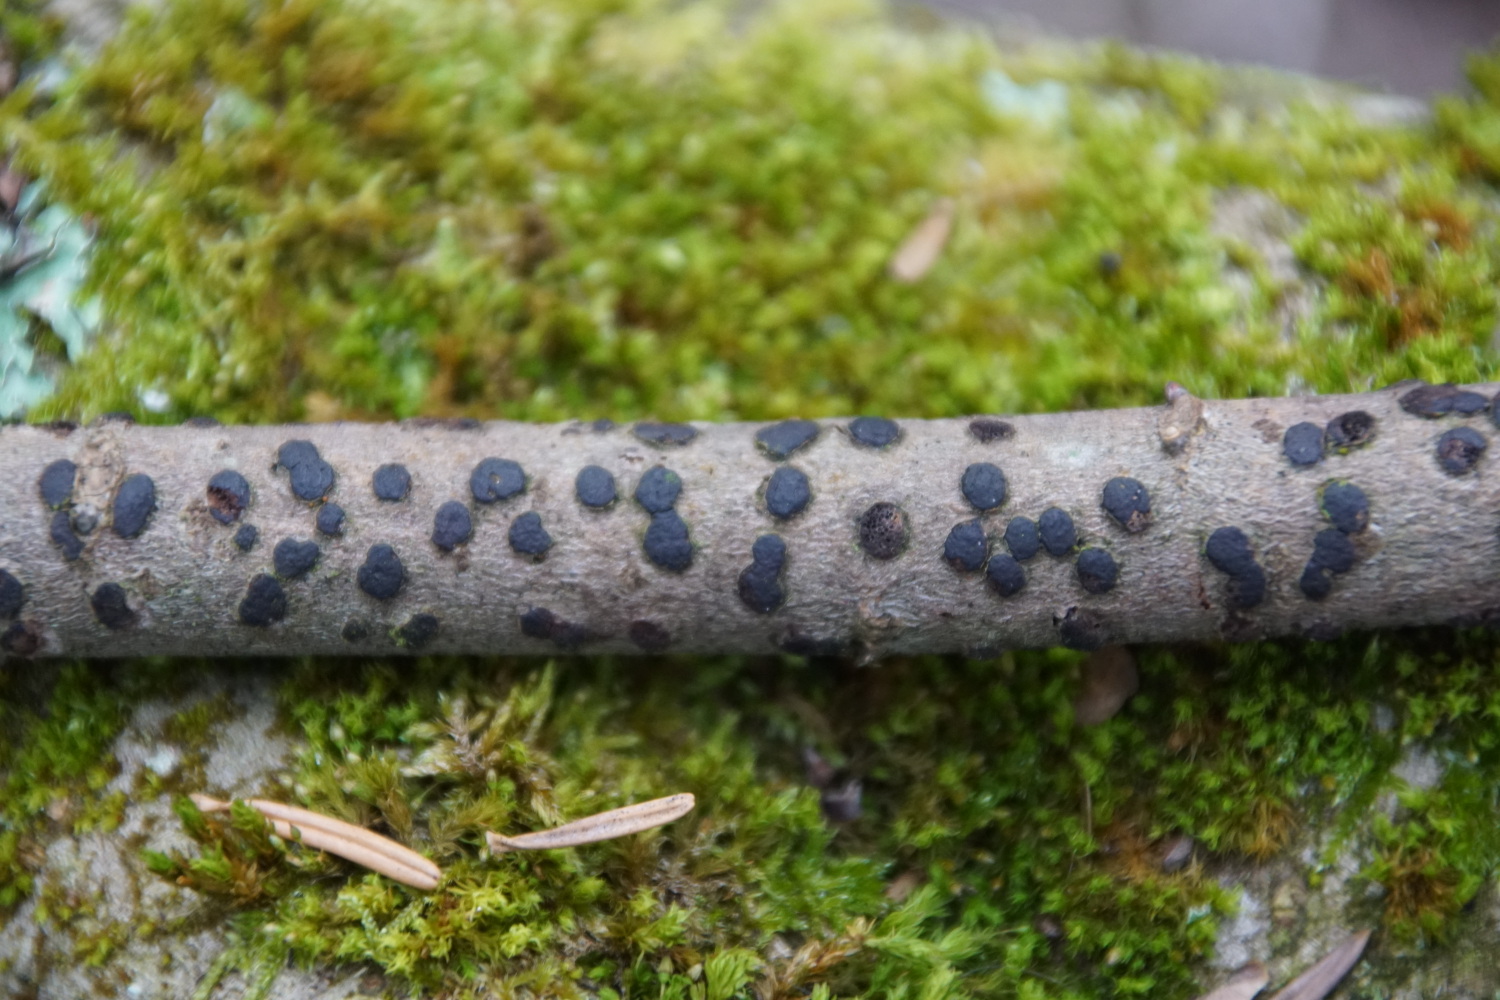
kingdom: Fungi
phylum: Ascomycota
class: Sordariomycetes
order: Xylariales
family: Diatrypaceae
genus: Diatrype
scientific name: Diatrype bullata
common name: pile-kulskorpe
